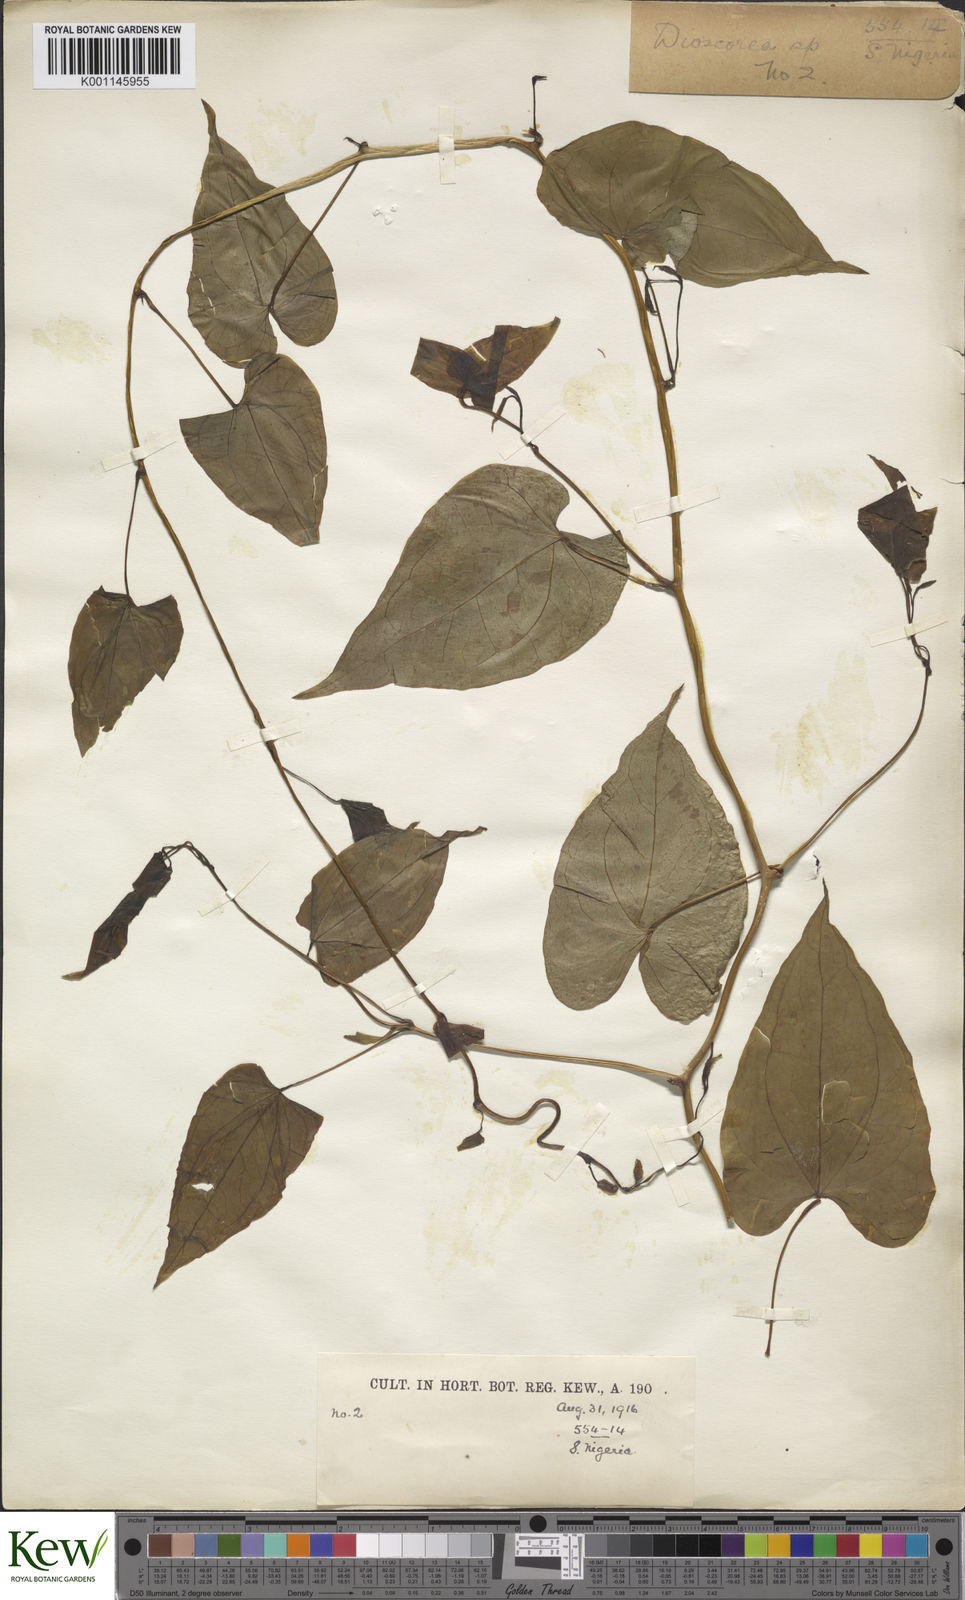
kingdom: Plantae
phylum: Tracheophyta
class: Liliopsida
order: Dioscoreales
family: Dioscoreaceae
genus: Dioscorea
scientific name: Dioscorea praehensilis
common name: Bush yam
